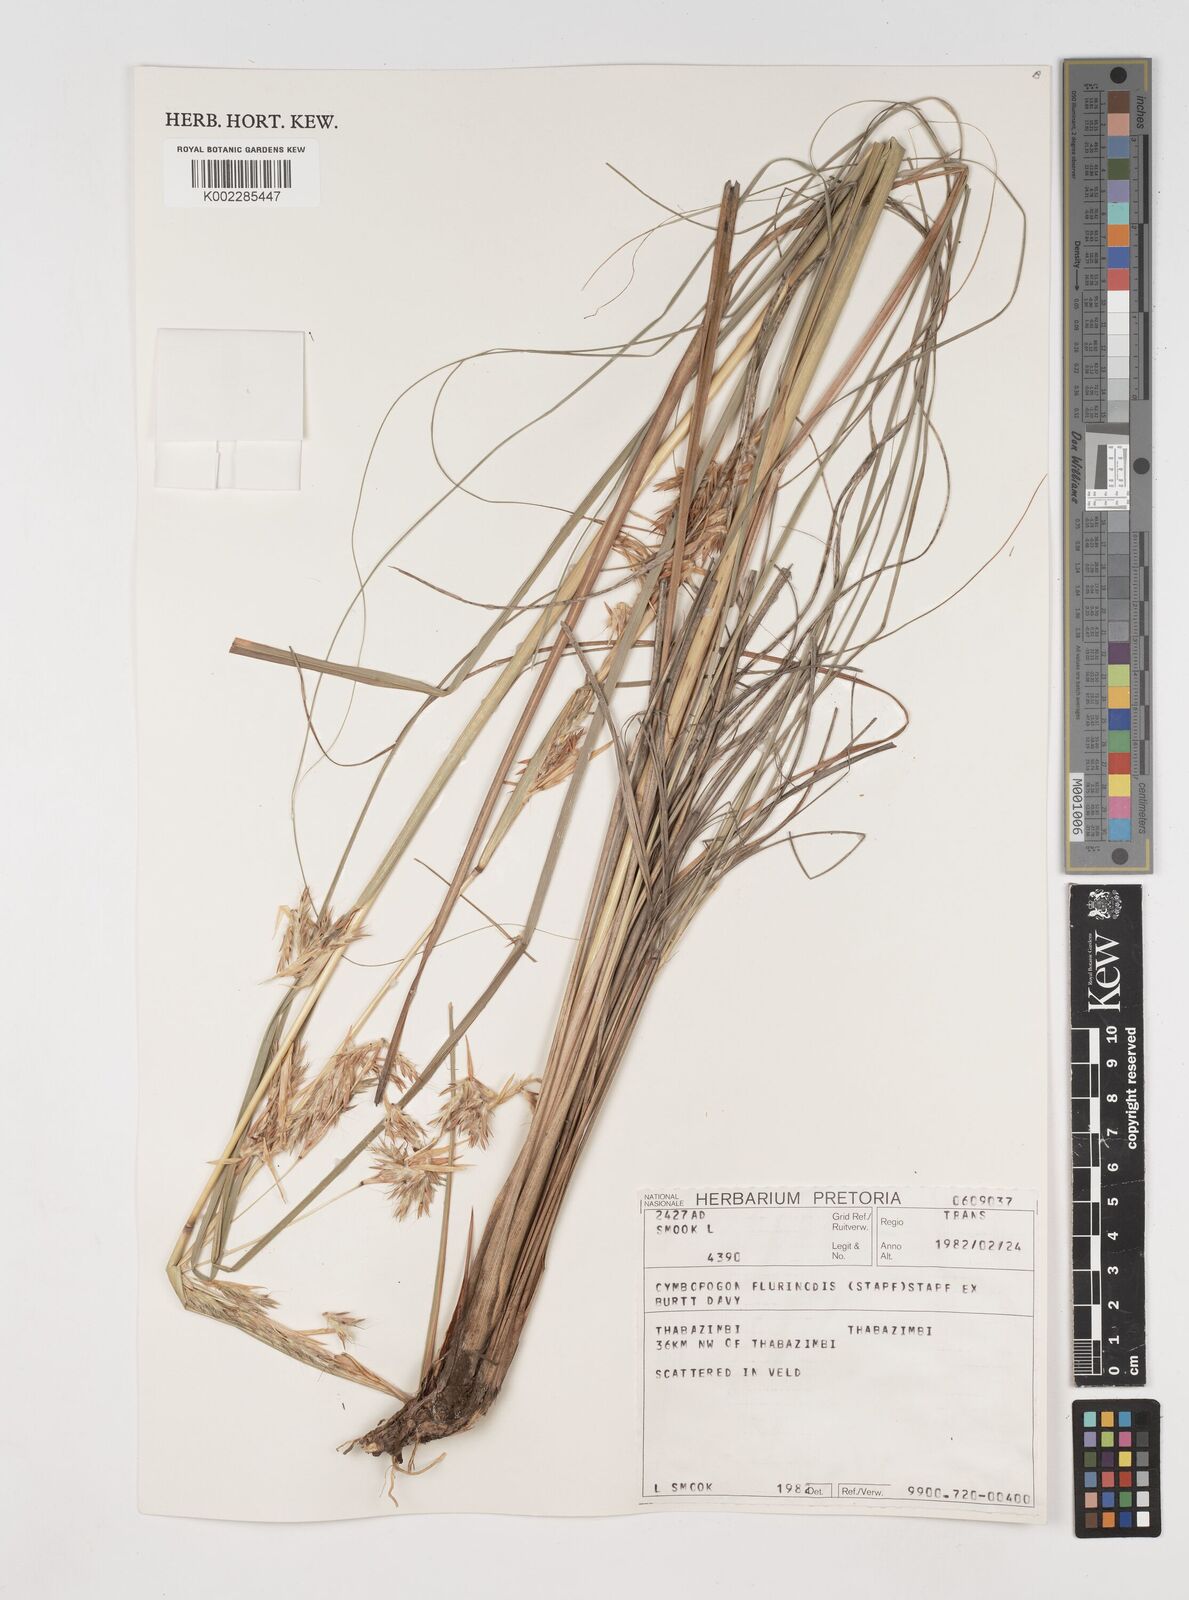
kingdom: Plantae
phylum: Tracheophyta
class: Liliopsida
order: Poales
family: Poaceae
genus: Cymbopogon
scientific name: Cymbopogon pospischilii
